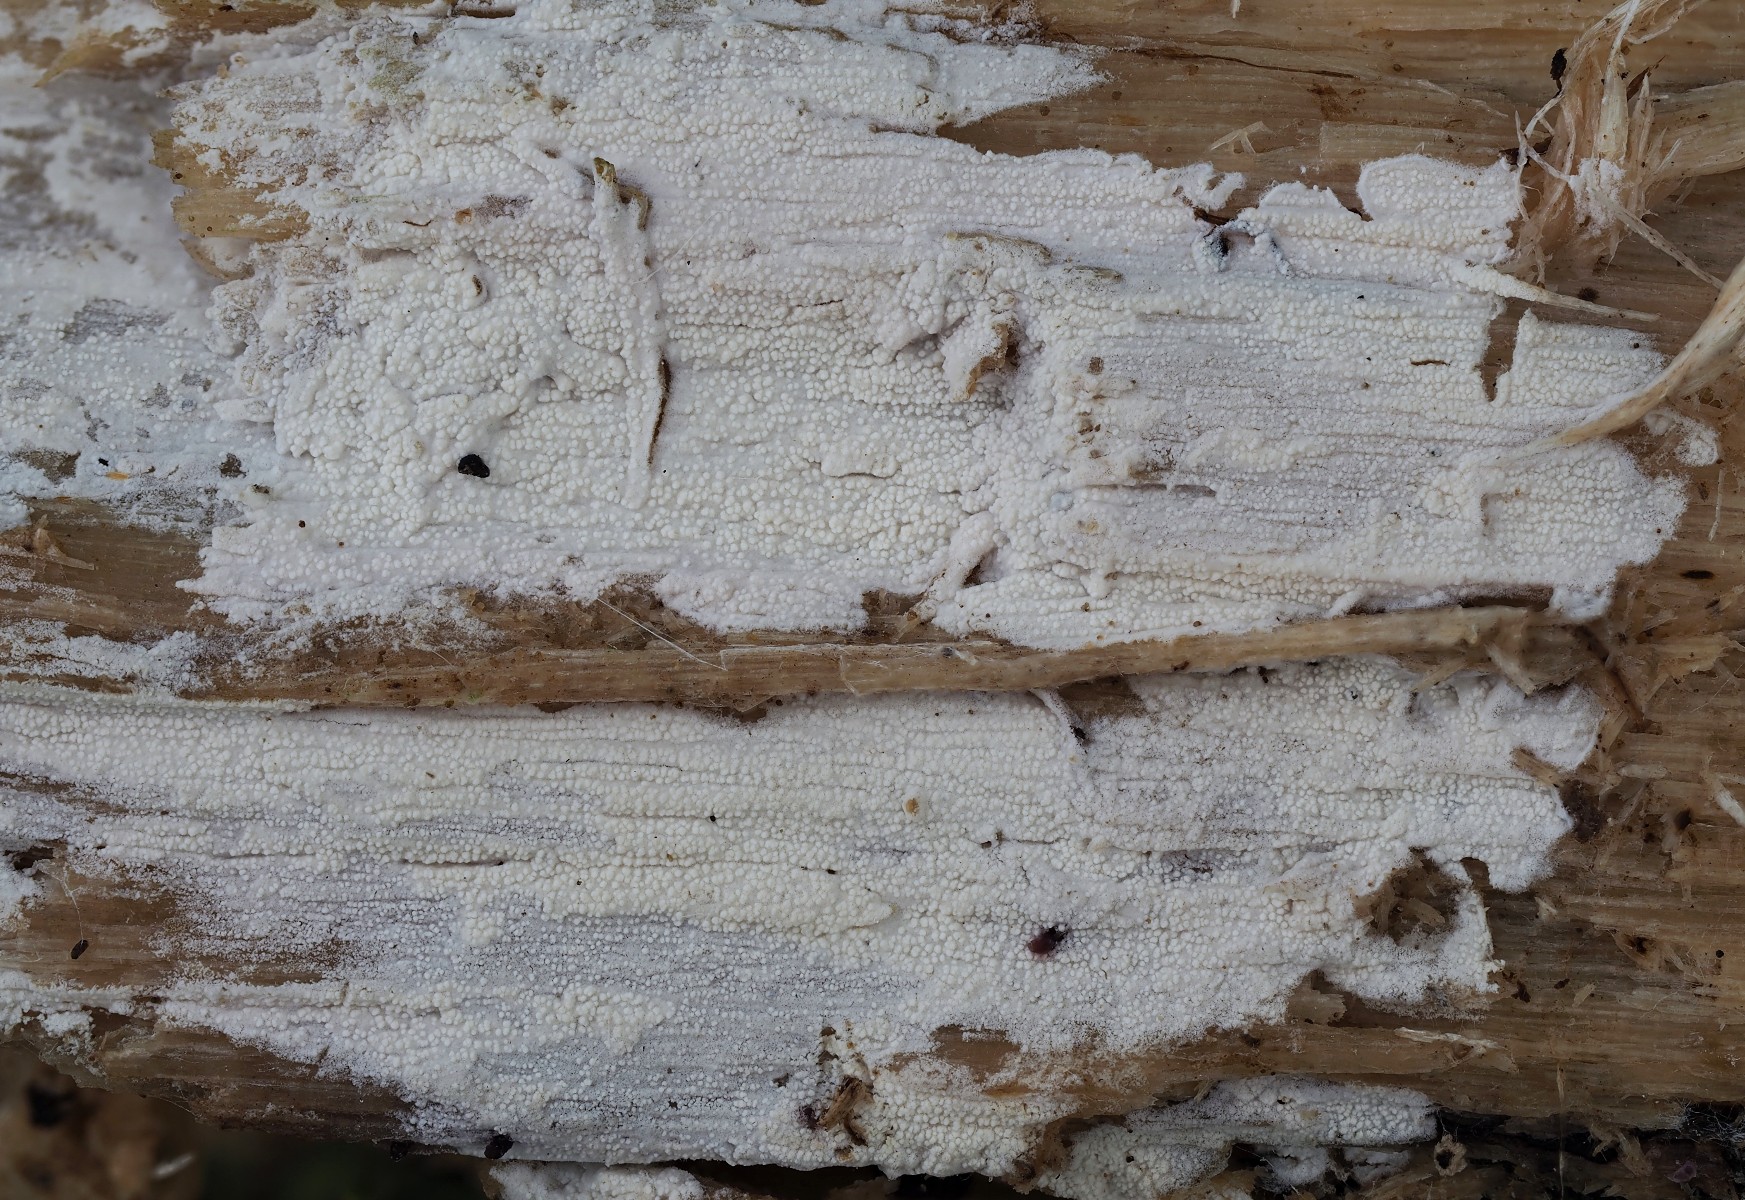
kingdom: Fungi
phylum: Basidiomycota
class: Agaricomycetes
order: Cantharellales
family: Hydnaceae
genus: Sistotrema
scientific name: Sistotrema brinkmannii
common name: bønnesporet kroneskorpe
